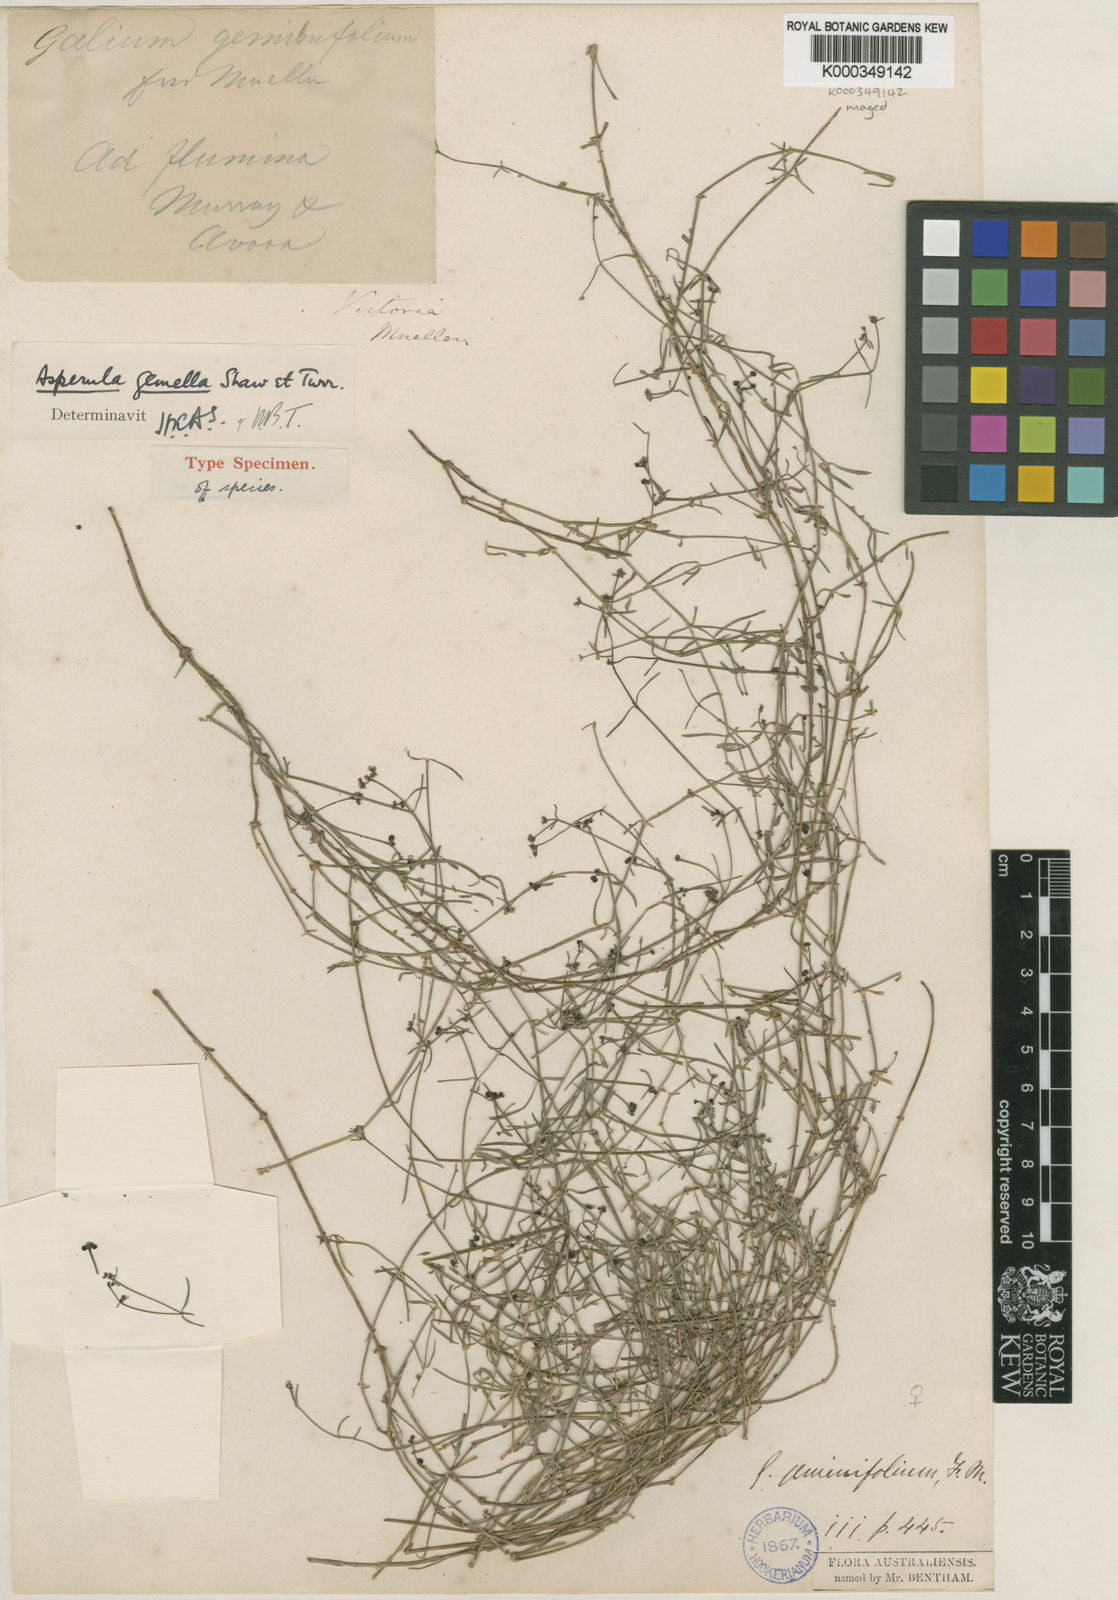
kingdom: Plantae
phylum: Tracheophyta
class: Magnoliopsida
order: Gentianales
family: Rubiaceae
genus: Asperula
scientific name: Asperula gemella
